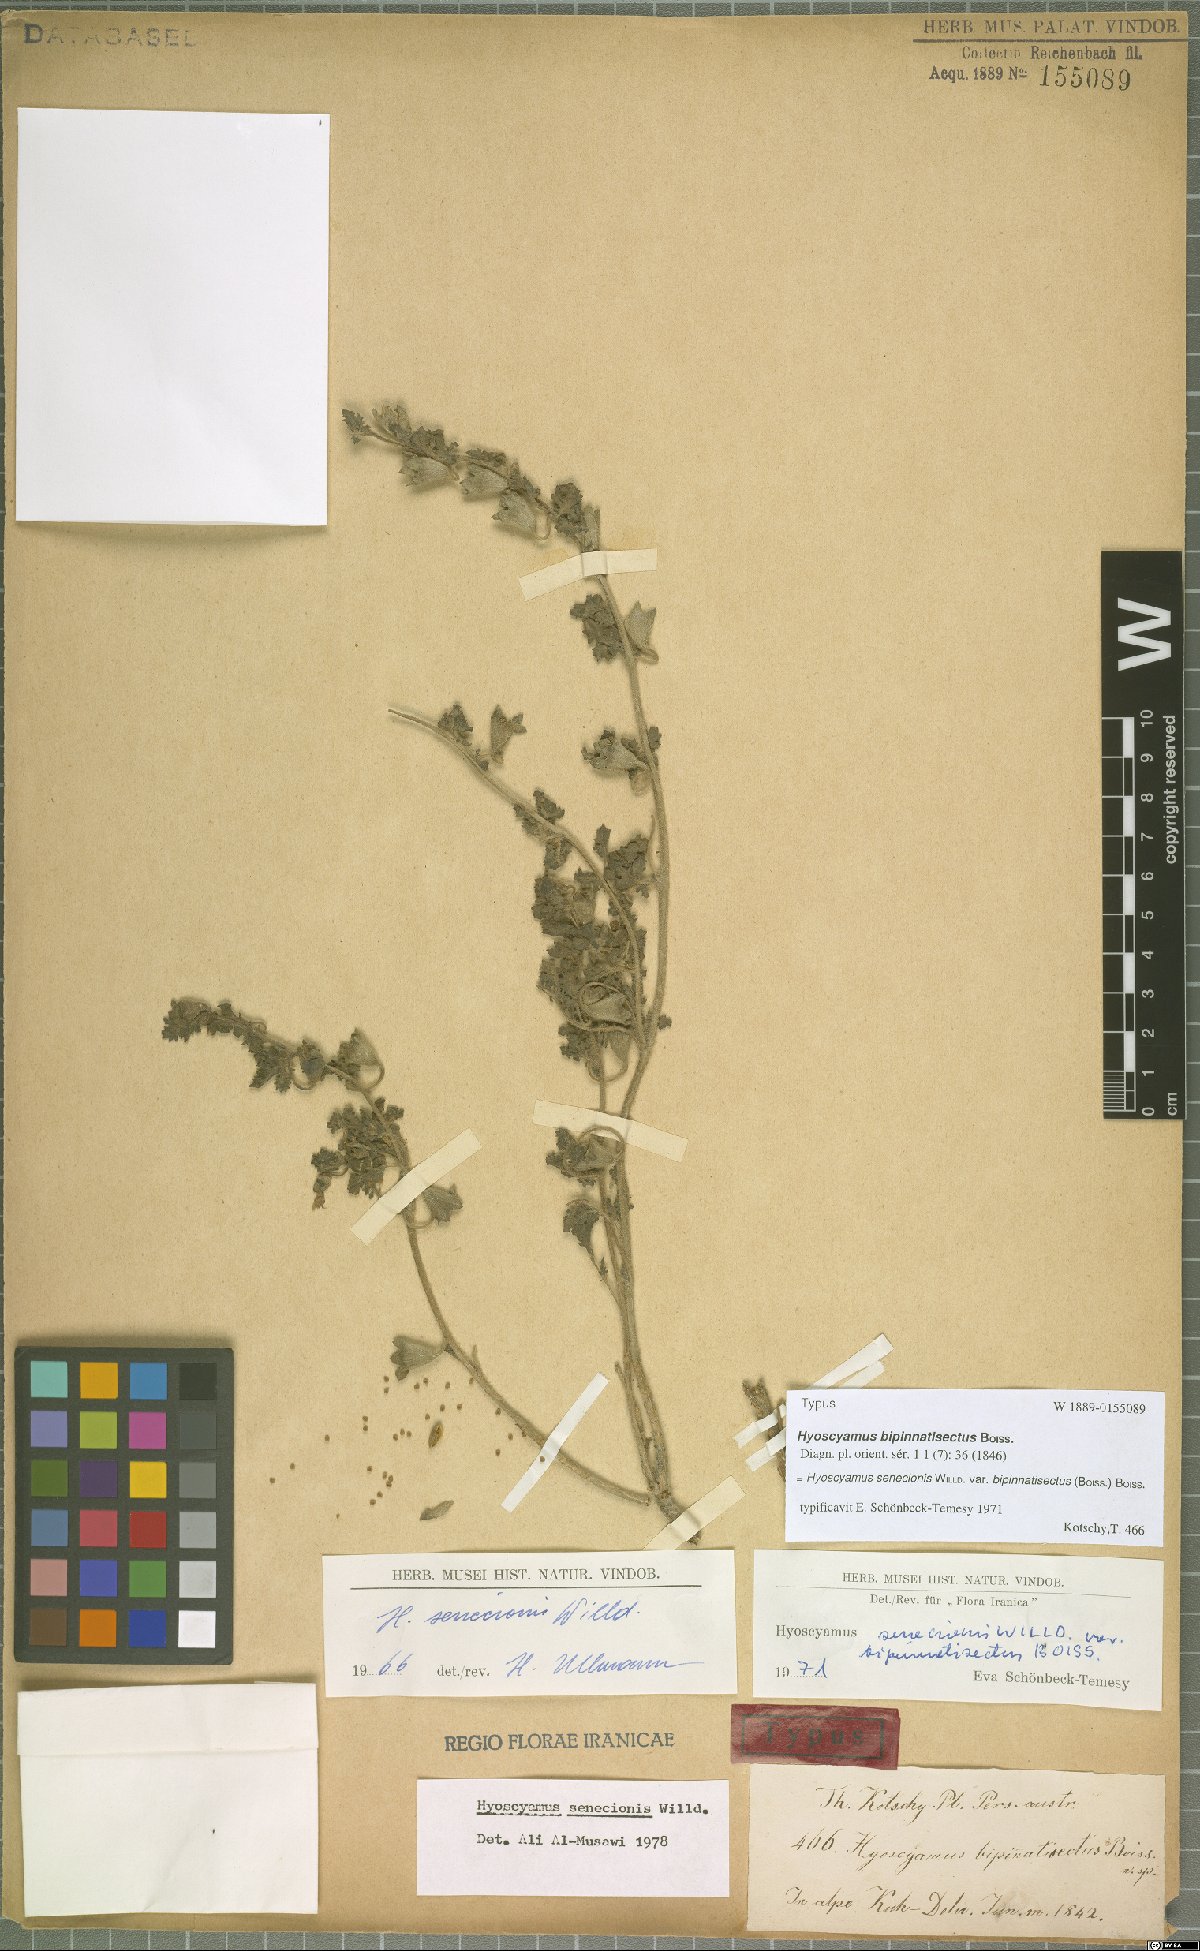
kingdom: Plantae
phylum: Tracheophyta
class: Magnoliopsida
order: Solanales
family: Solanaceae
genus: Hyoscyamus
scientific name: Hyoscyamus senecionis
